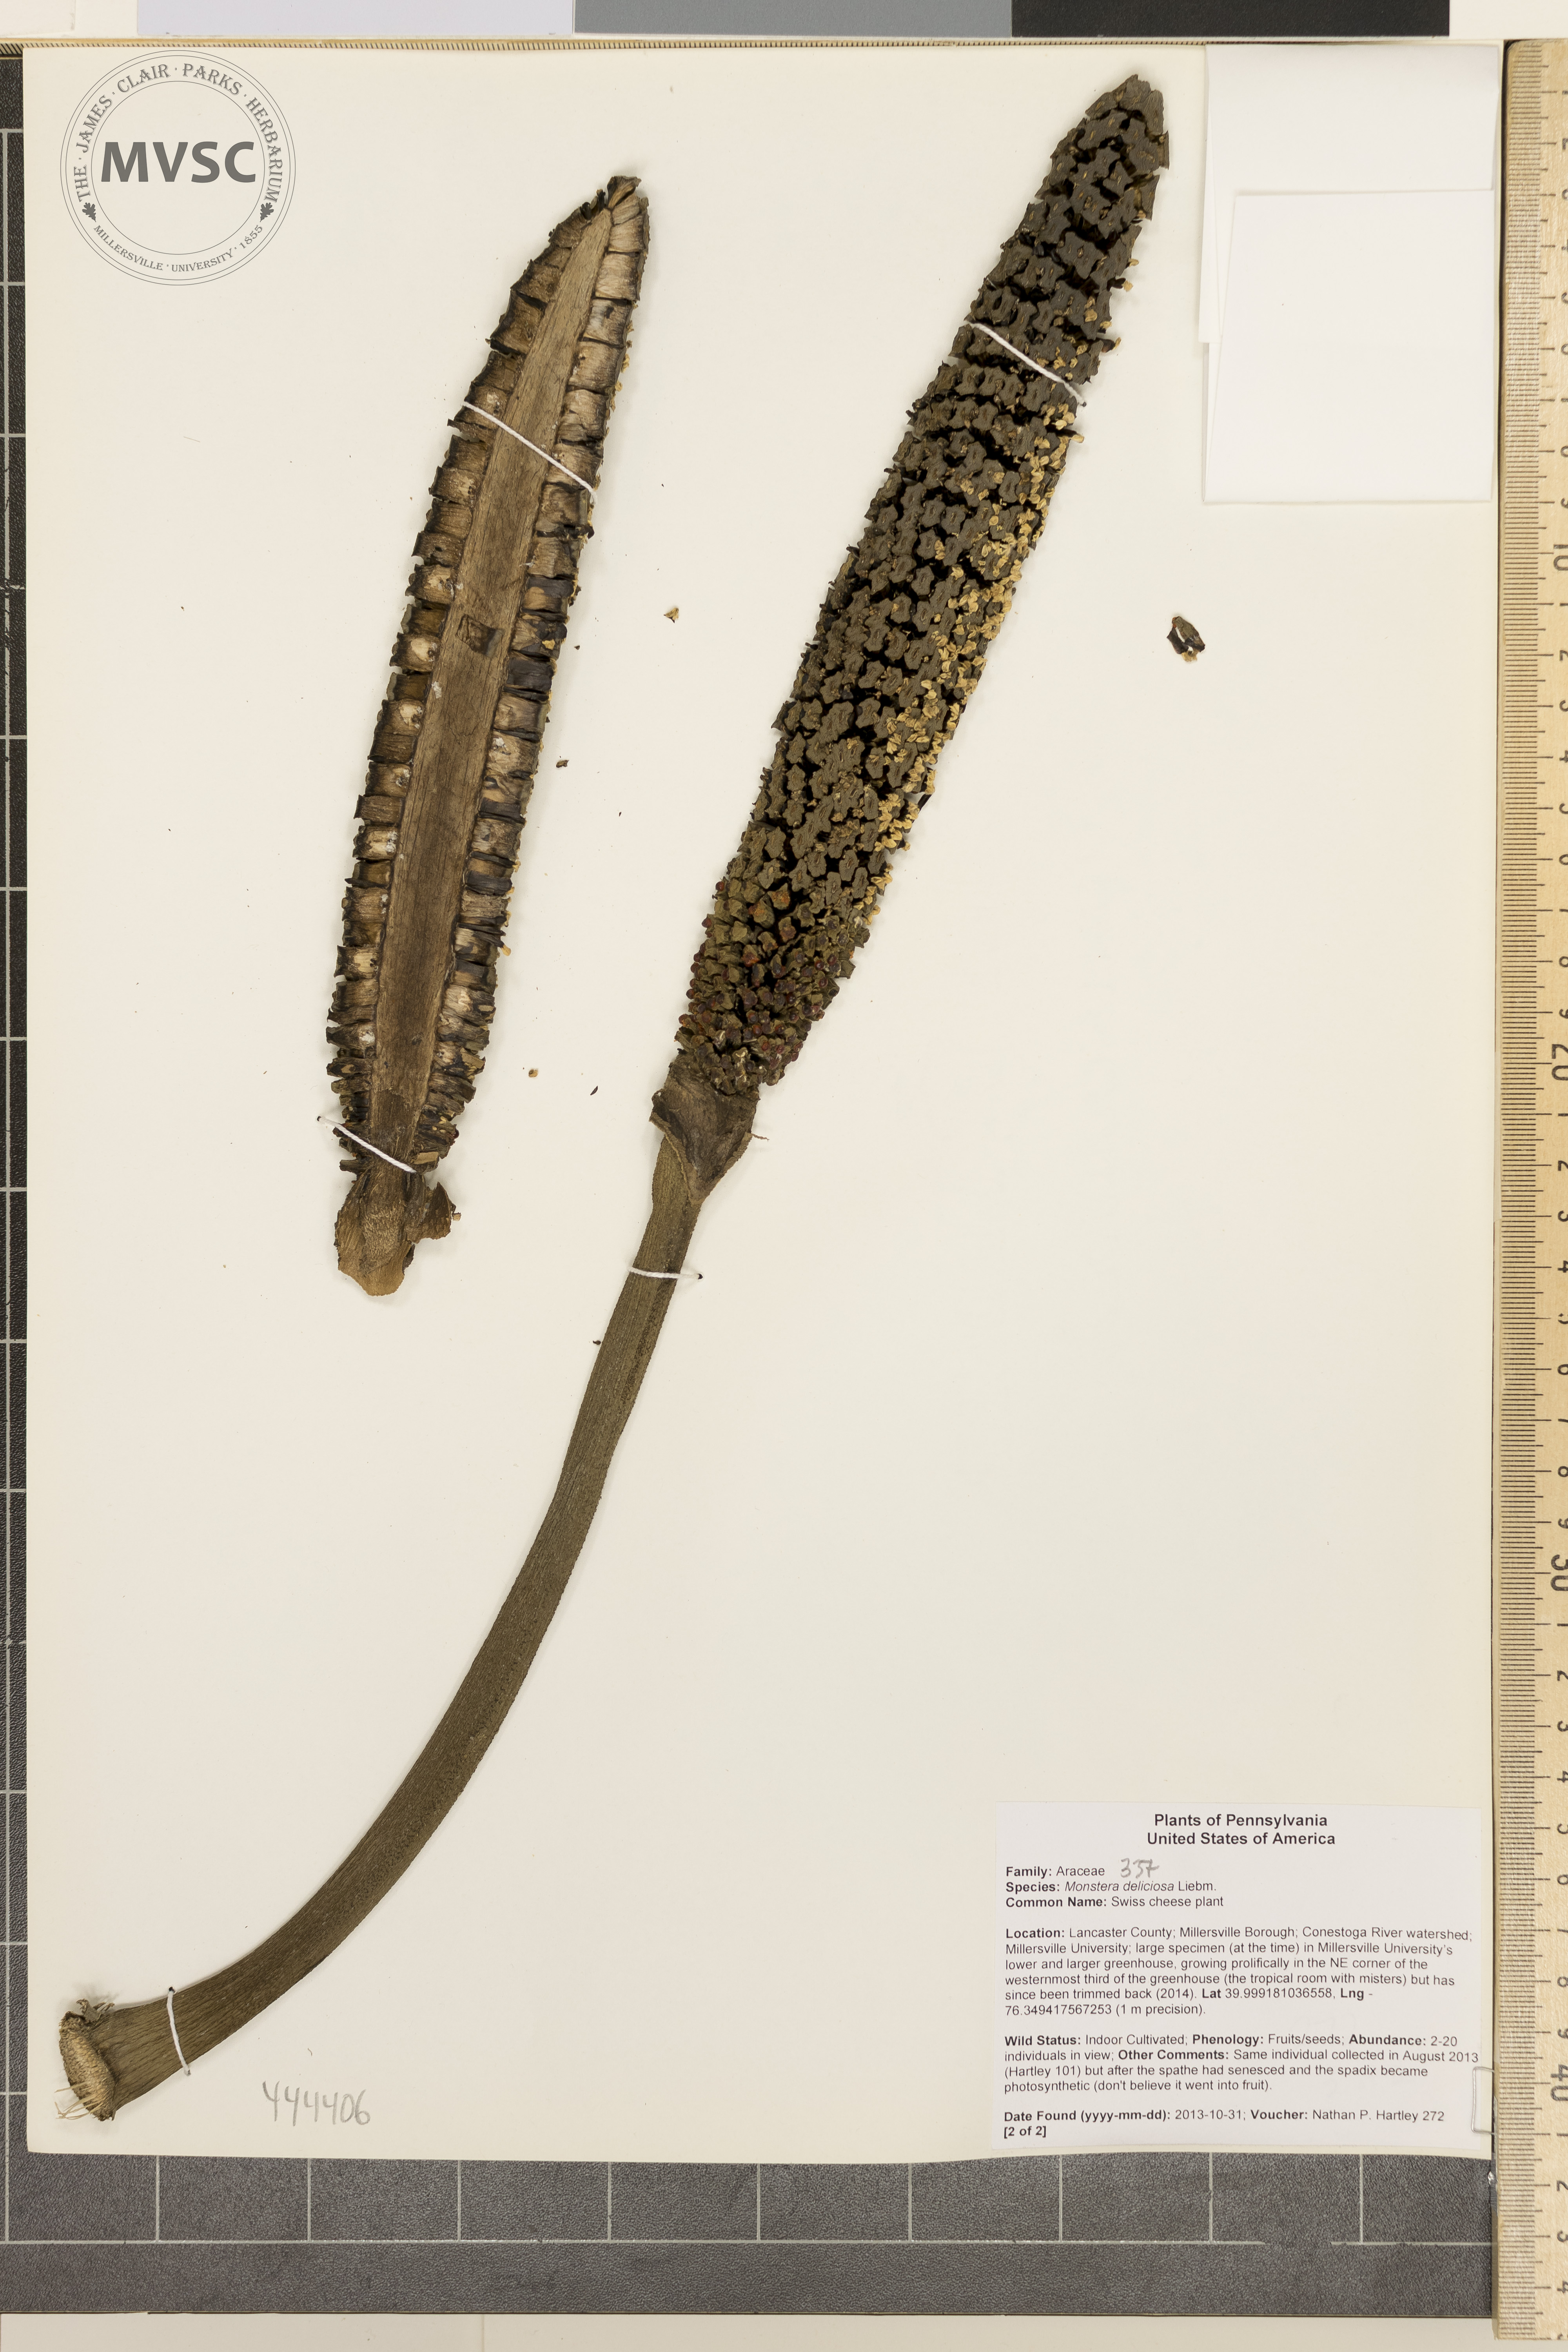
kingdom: Plantae
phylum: Tracheophyta
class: Liliopsida
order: Alismatales
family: Araceae
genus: Monstera
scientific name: Monstera deliciosa
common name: Swiss cheese plant
